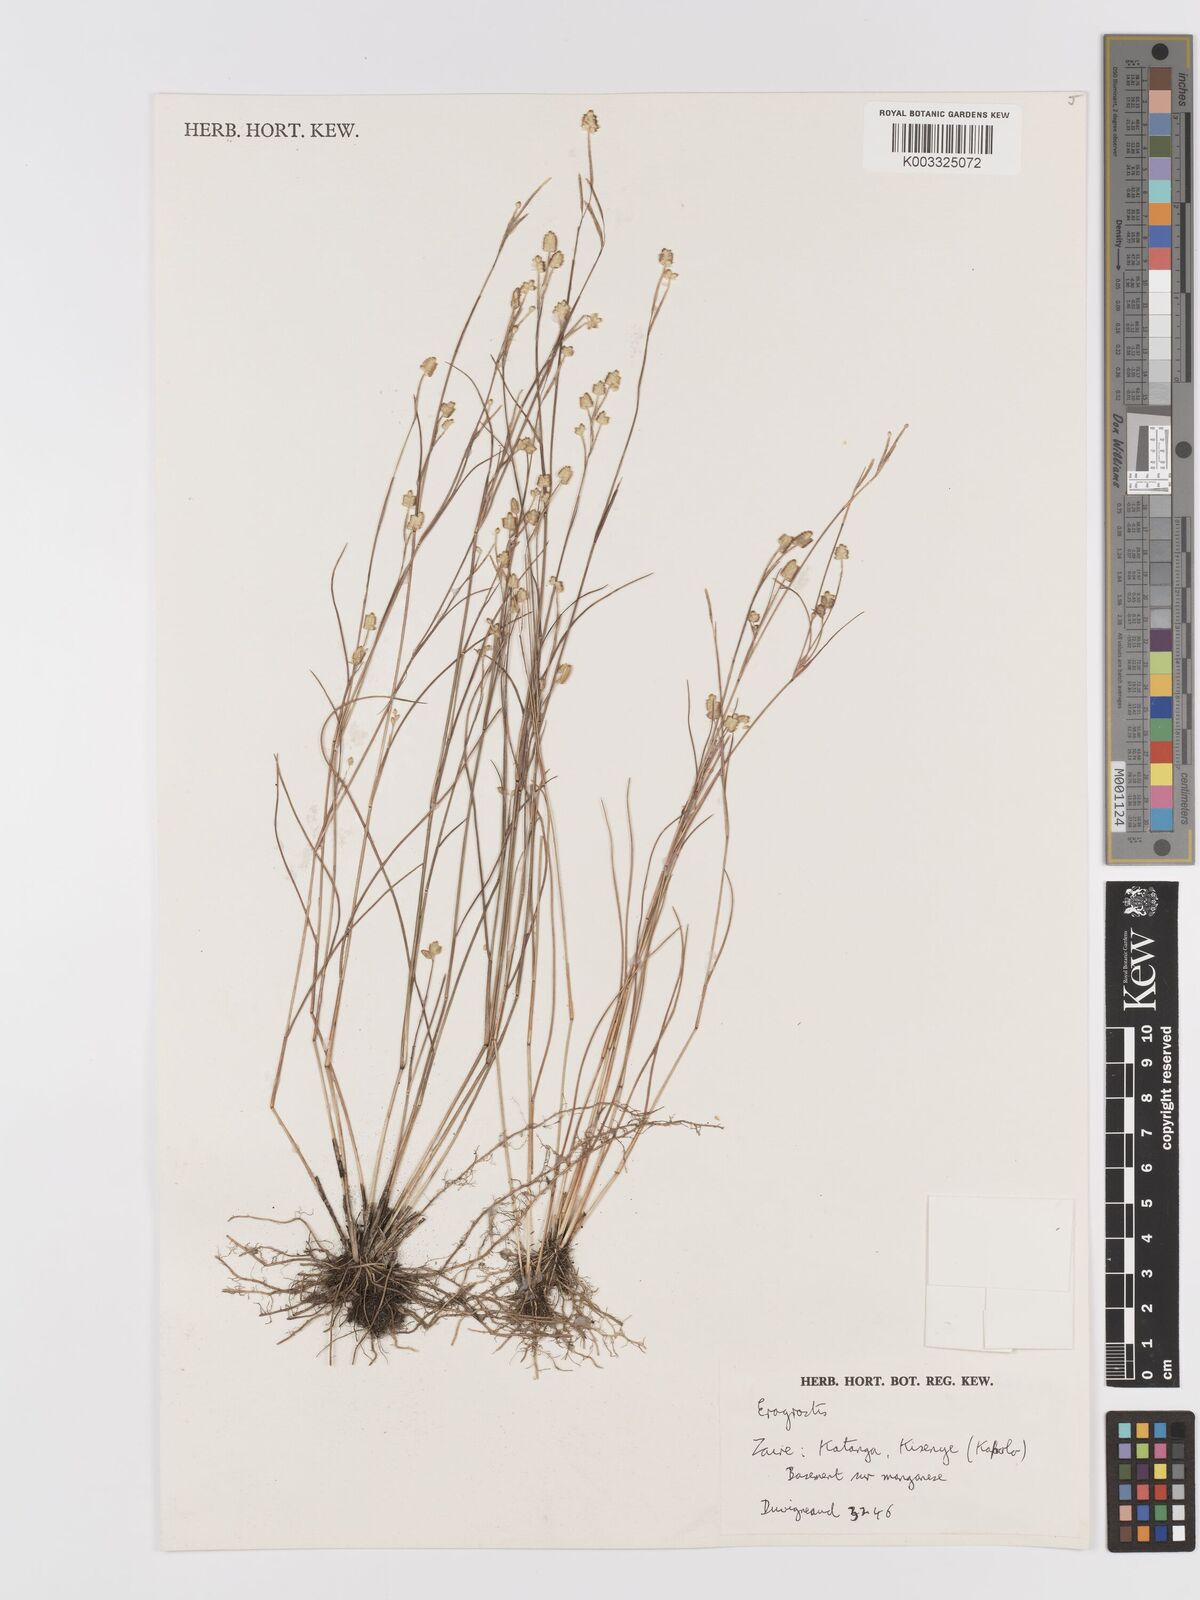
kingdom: Plantae
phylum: Tracheophyta
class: Liliopsida
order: Poales
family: Poaceae
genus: Eragrostis
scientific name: Eragrostis
